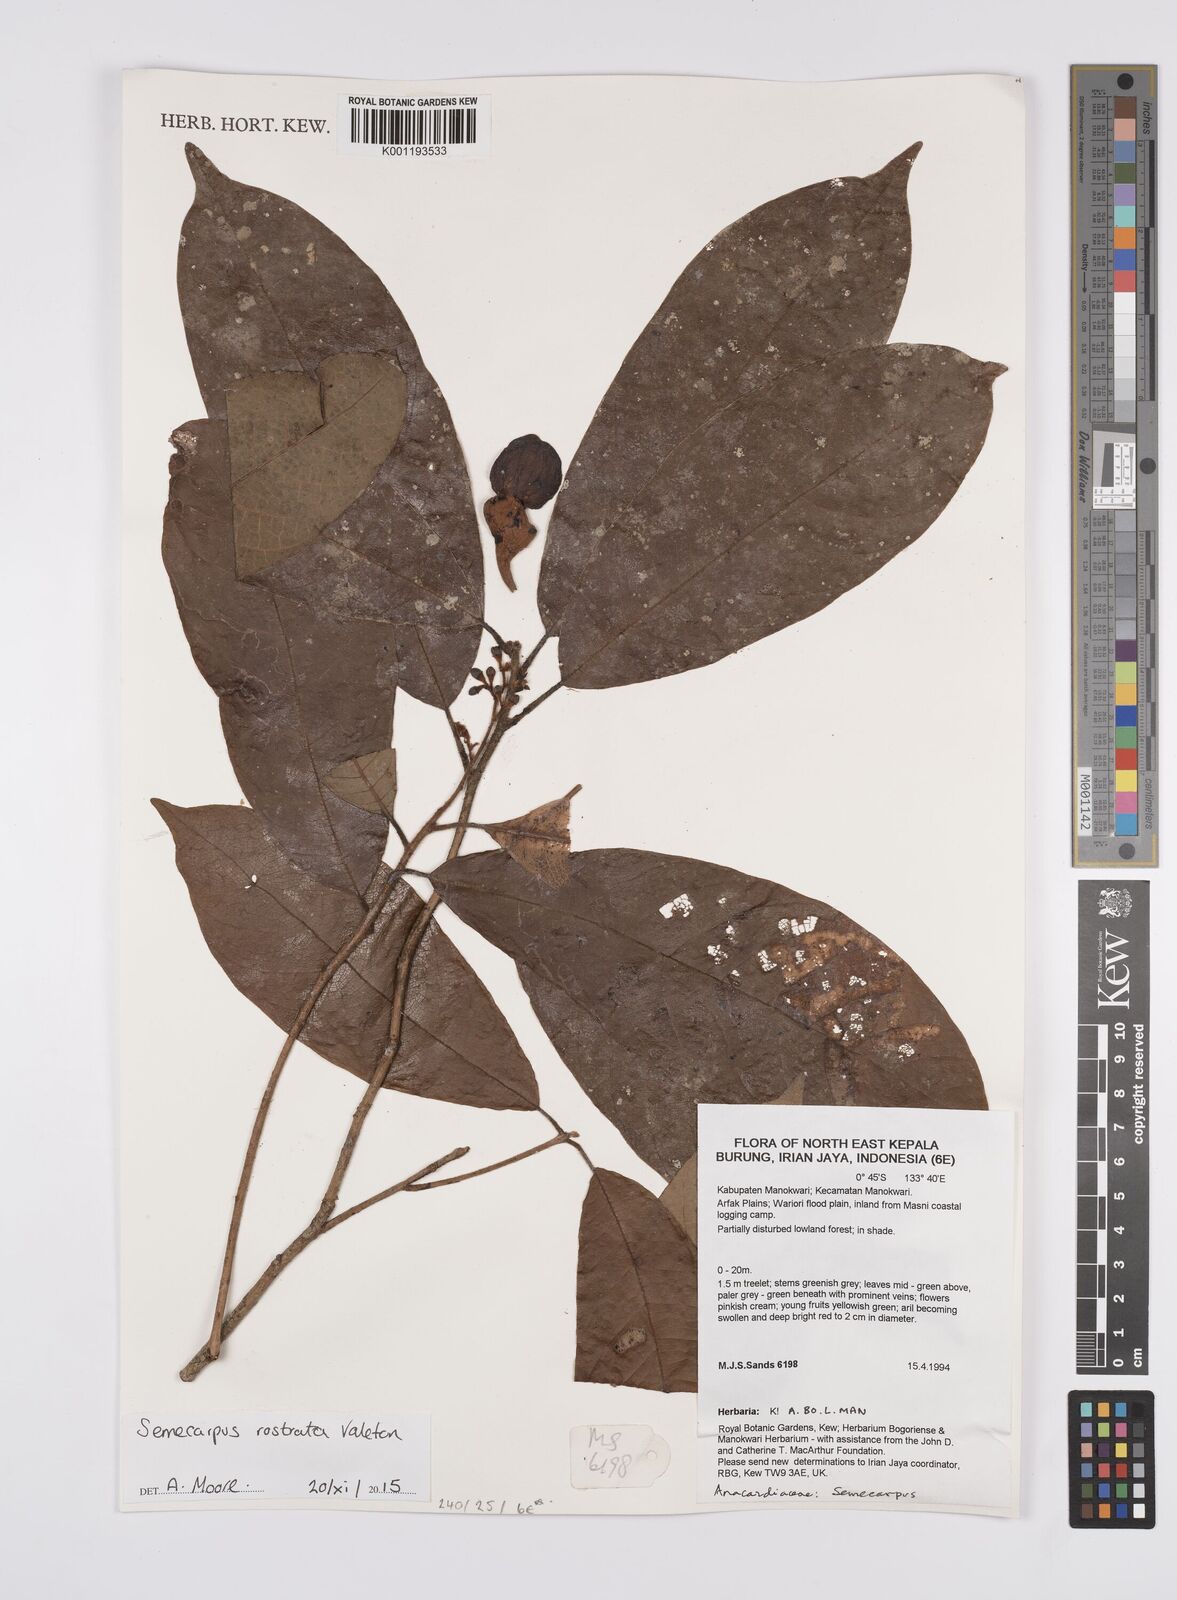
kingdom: Plantae
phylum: Tracheophyta
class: Magnoliopsida
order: Sapindales
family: Anacardiaceae
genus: Semecarpus
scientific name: Semecarpus rostratus
